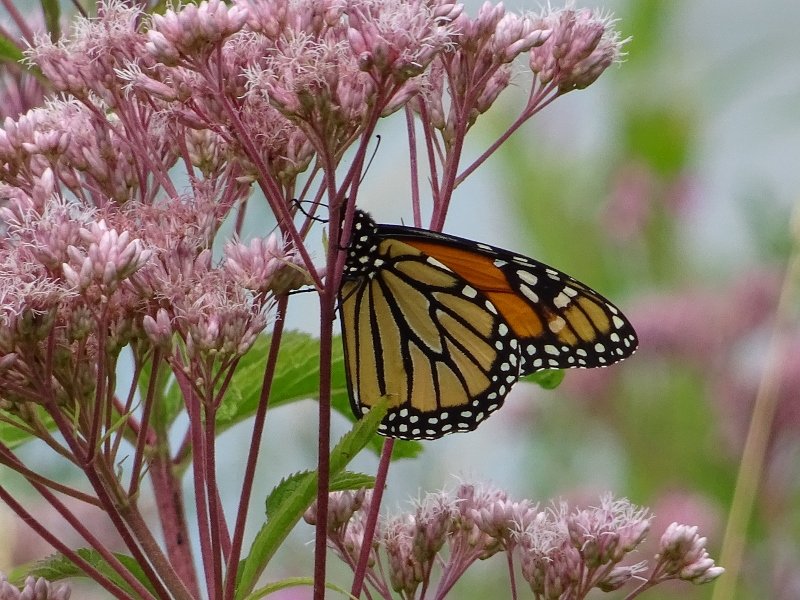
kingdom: Animalia
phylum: Arthropoda
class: Insecta
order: Lepidoptera
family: Nymphalidae
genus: Danaus
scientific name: Danaus plexippus
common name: Monarch
